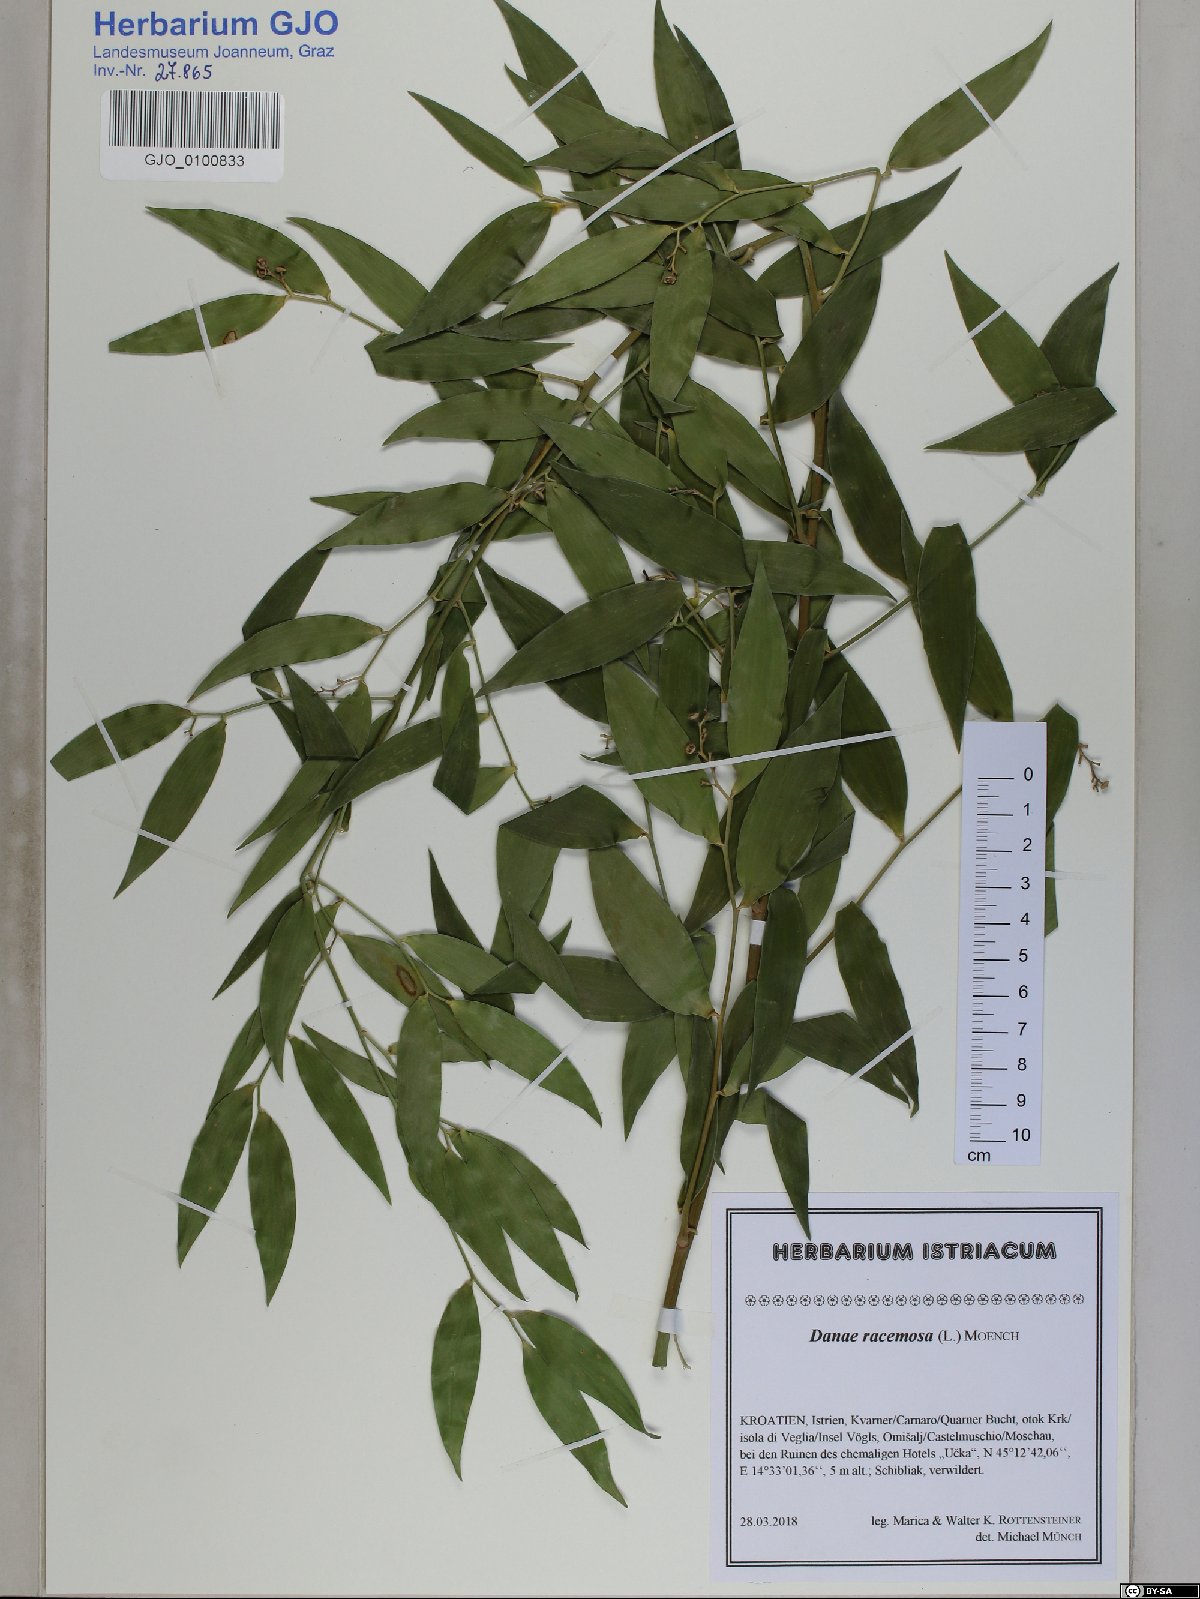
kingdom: Plantae
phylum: Tracheophyta
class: Liliopsida
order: Asparagales
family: Asparagaceae
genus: Danae
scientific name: Danae racemosa
